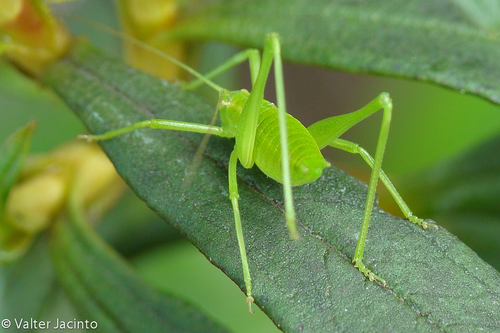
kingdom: Animalia
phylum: Arthropoda
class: Insecta
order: Orthoptera
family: Tettigoniidae
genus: Odontura
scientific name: Odontura glabricauda
